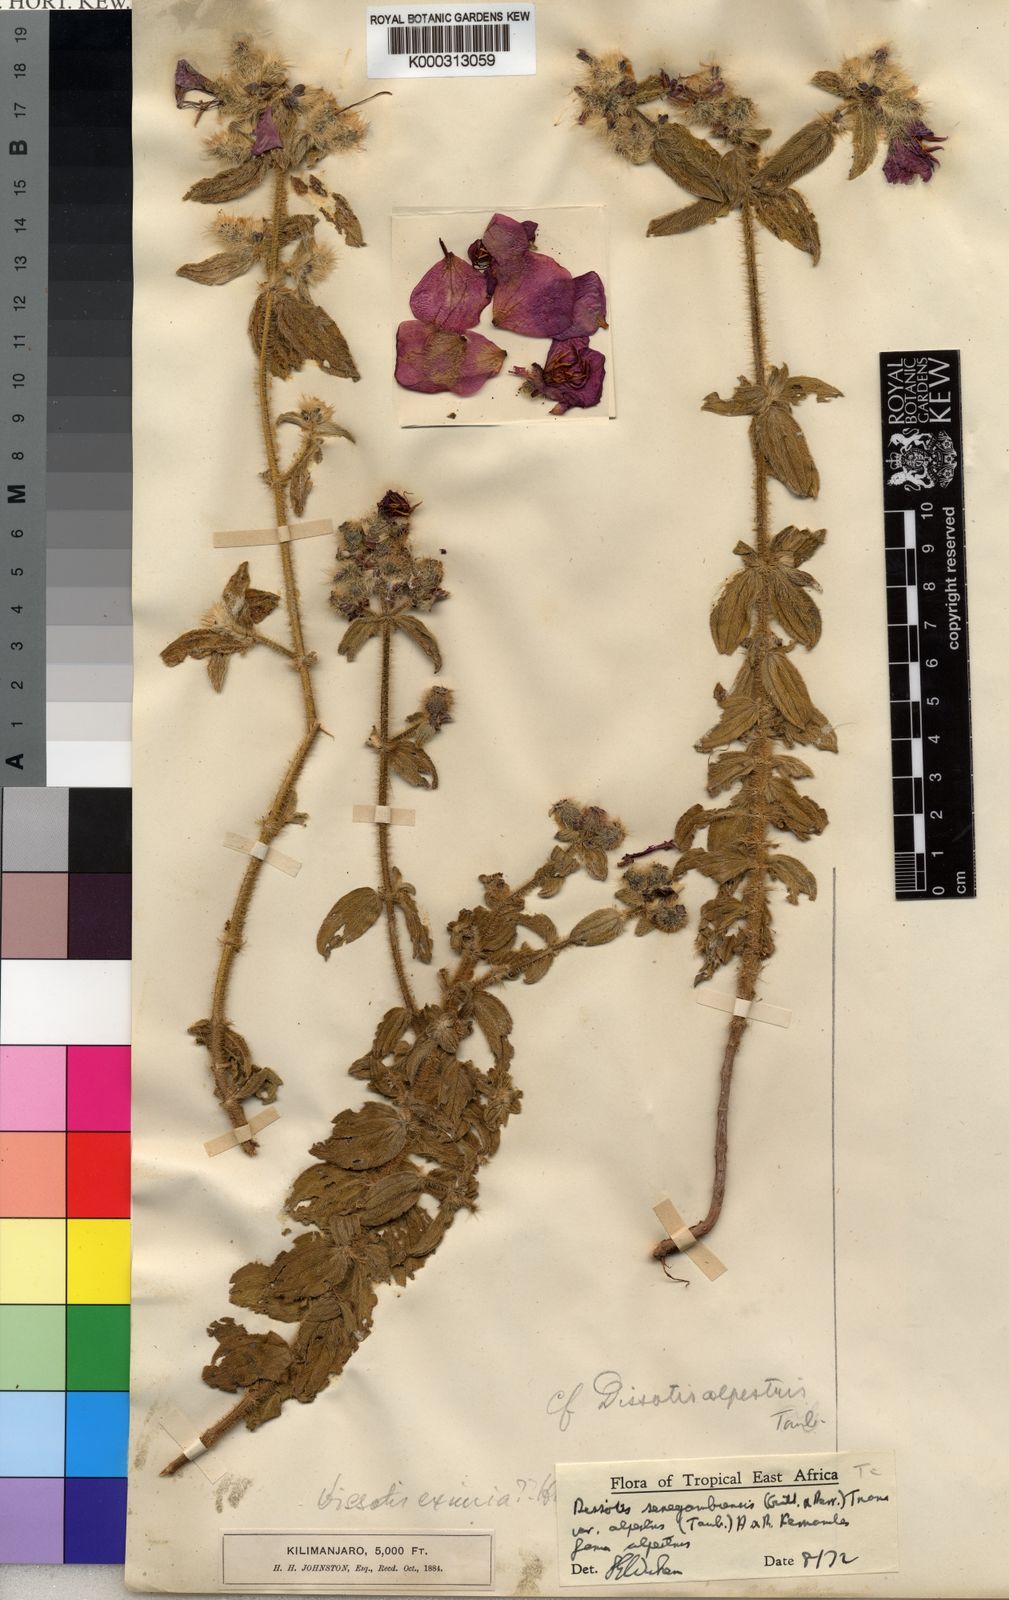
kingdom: Plantae
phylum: Tracheophyta
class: Magnoliopsida
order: Myrtales
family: Melastomataceae
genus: Antherotoma
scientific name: Antherotoma
